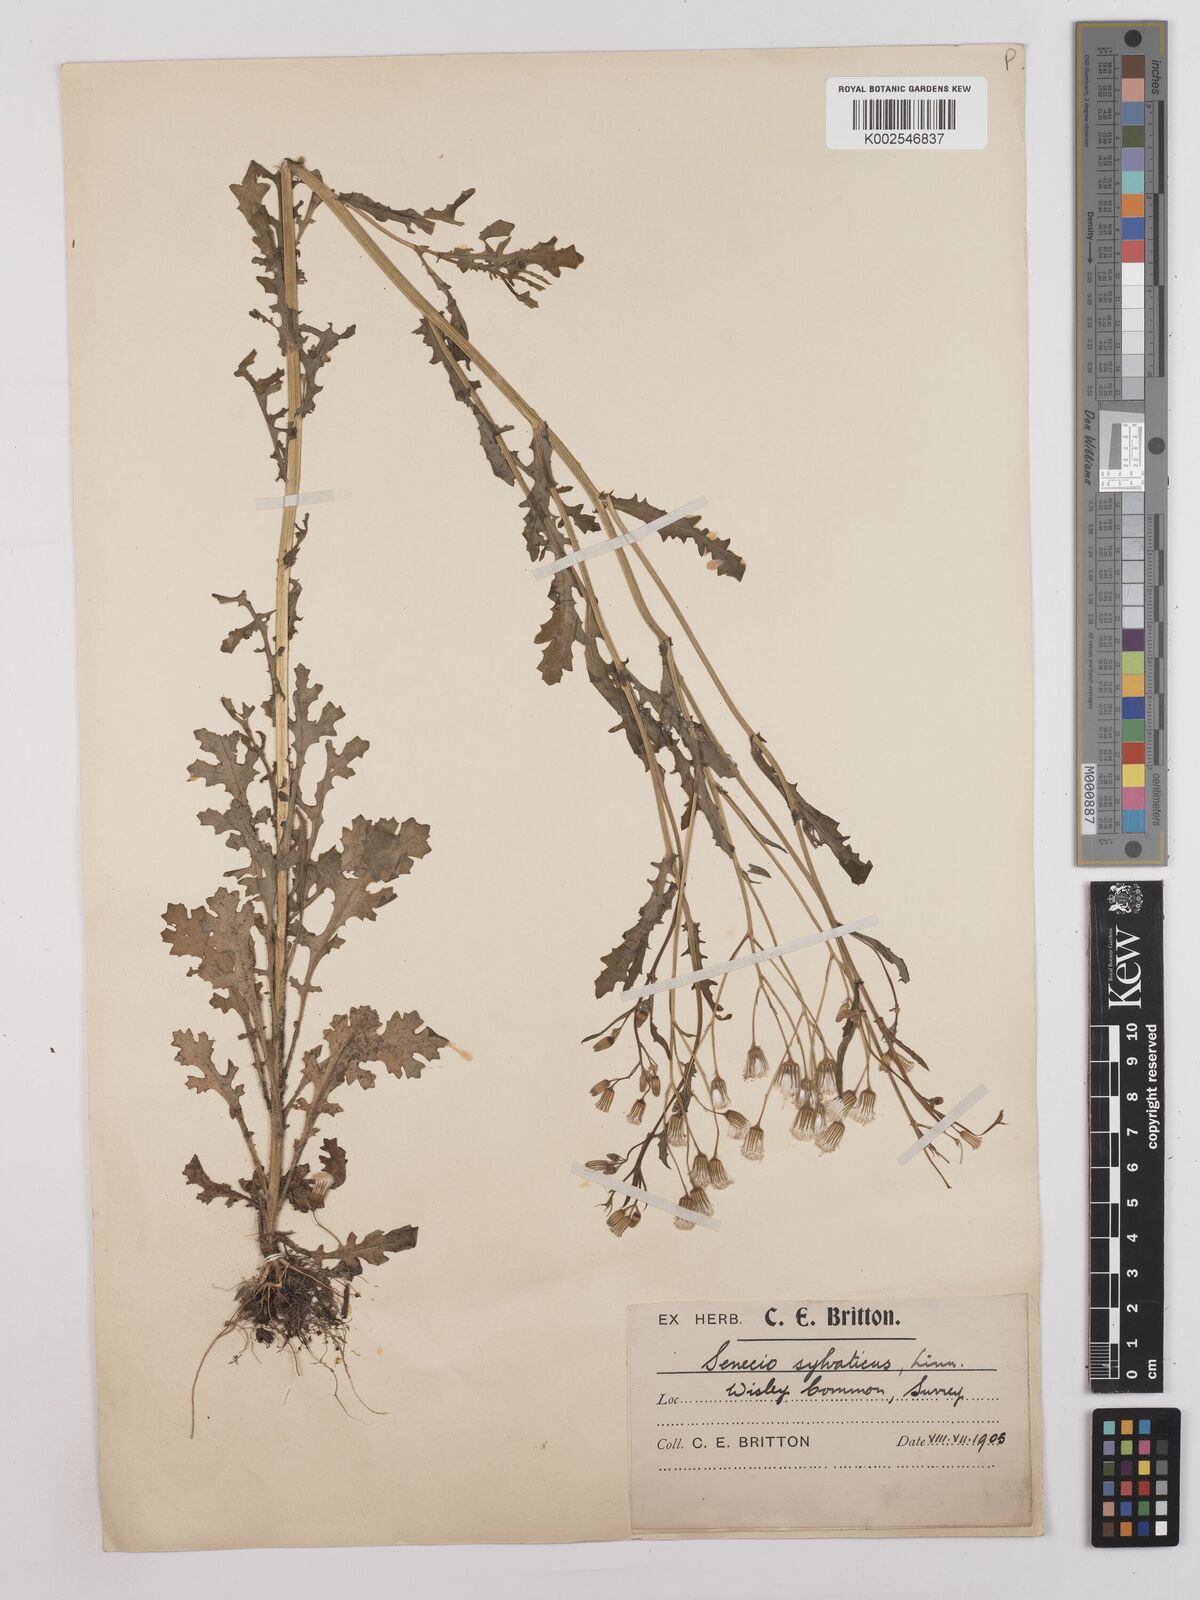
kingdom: Plantae
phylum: Tracheophyta
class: Magnoliopsida
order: Asterales
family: Asteraceae
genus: Senecio
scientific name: Senecio sylvaticus
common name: Woodland ragwort
